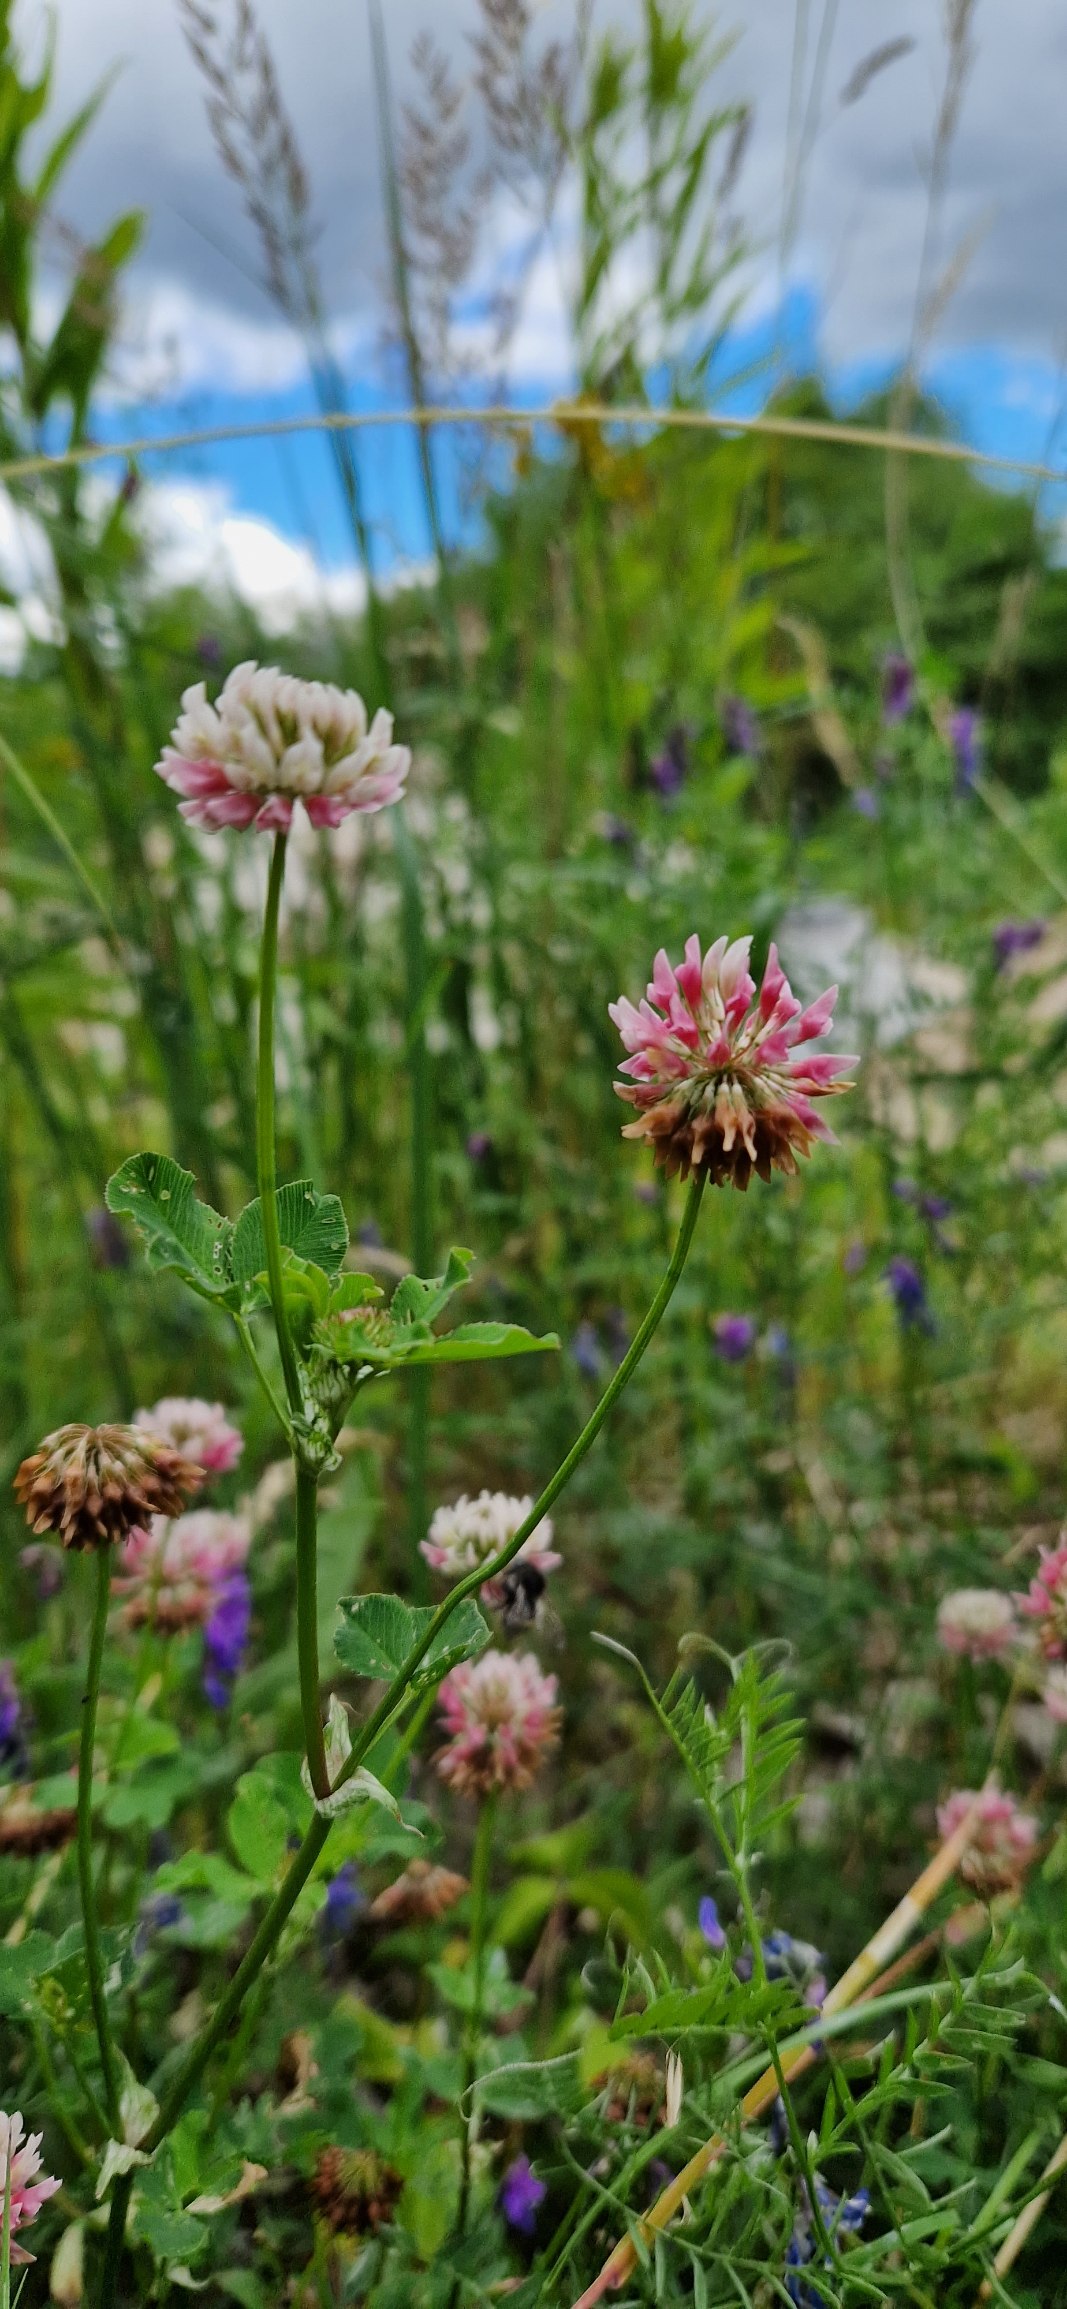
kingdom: Plantae
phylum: Tracheophyta
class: Magnoliopsida
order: Fabales
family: Fabaceae
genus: Trifolium
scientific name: Trifolium hybridum
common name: Alsike-kløver
